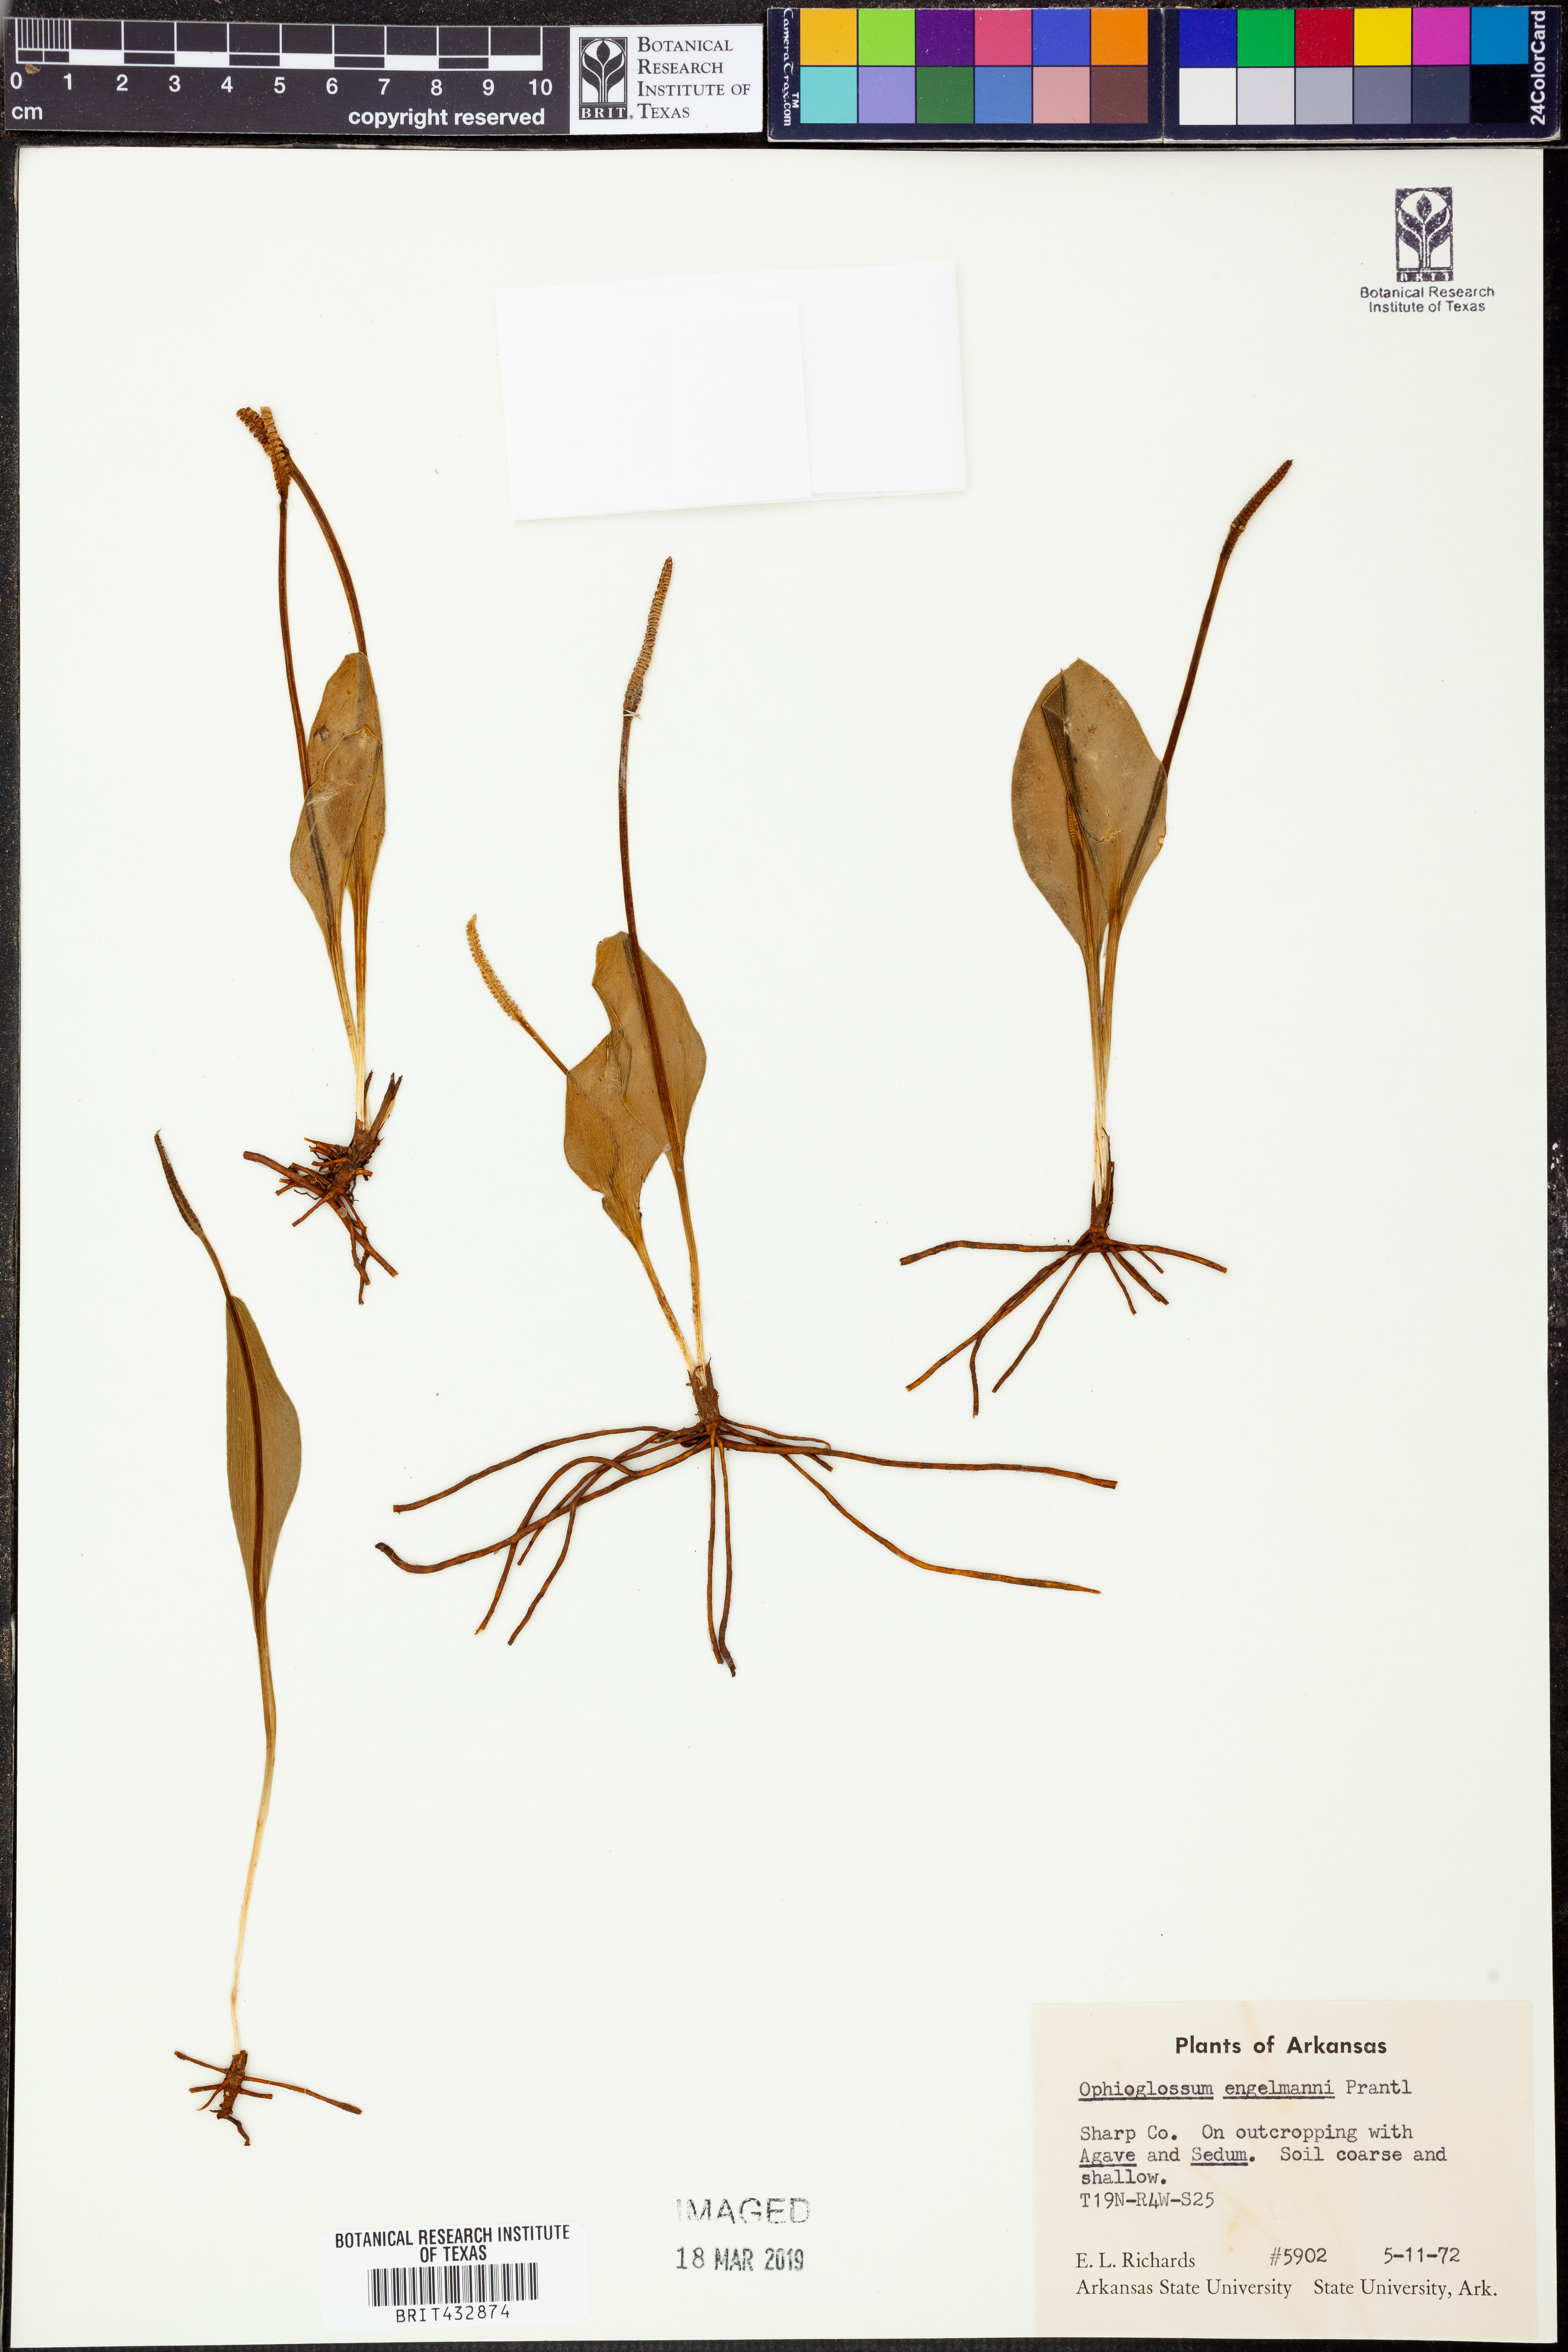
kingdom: Plantae
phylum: Tracheophyta
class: Polypodiopsida
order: Ophioglossales
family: Ophioglossaceae
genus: Ophioglossum
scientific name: Ophioglossum engelmannii
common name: Limestone adder's-tongue
